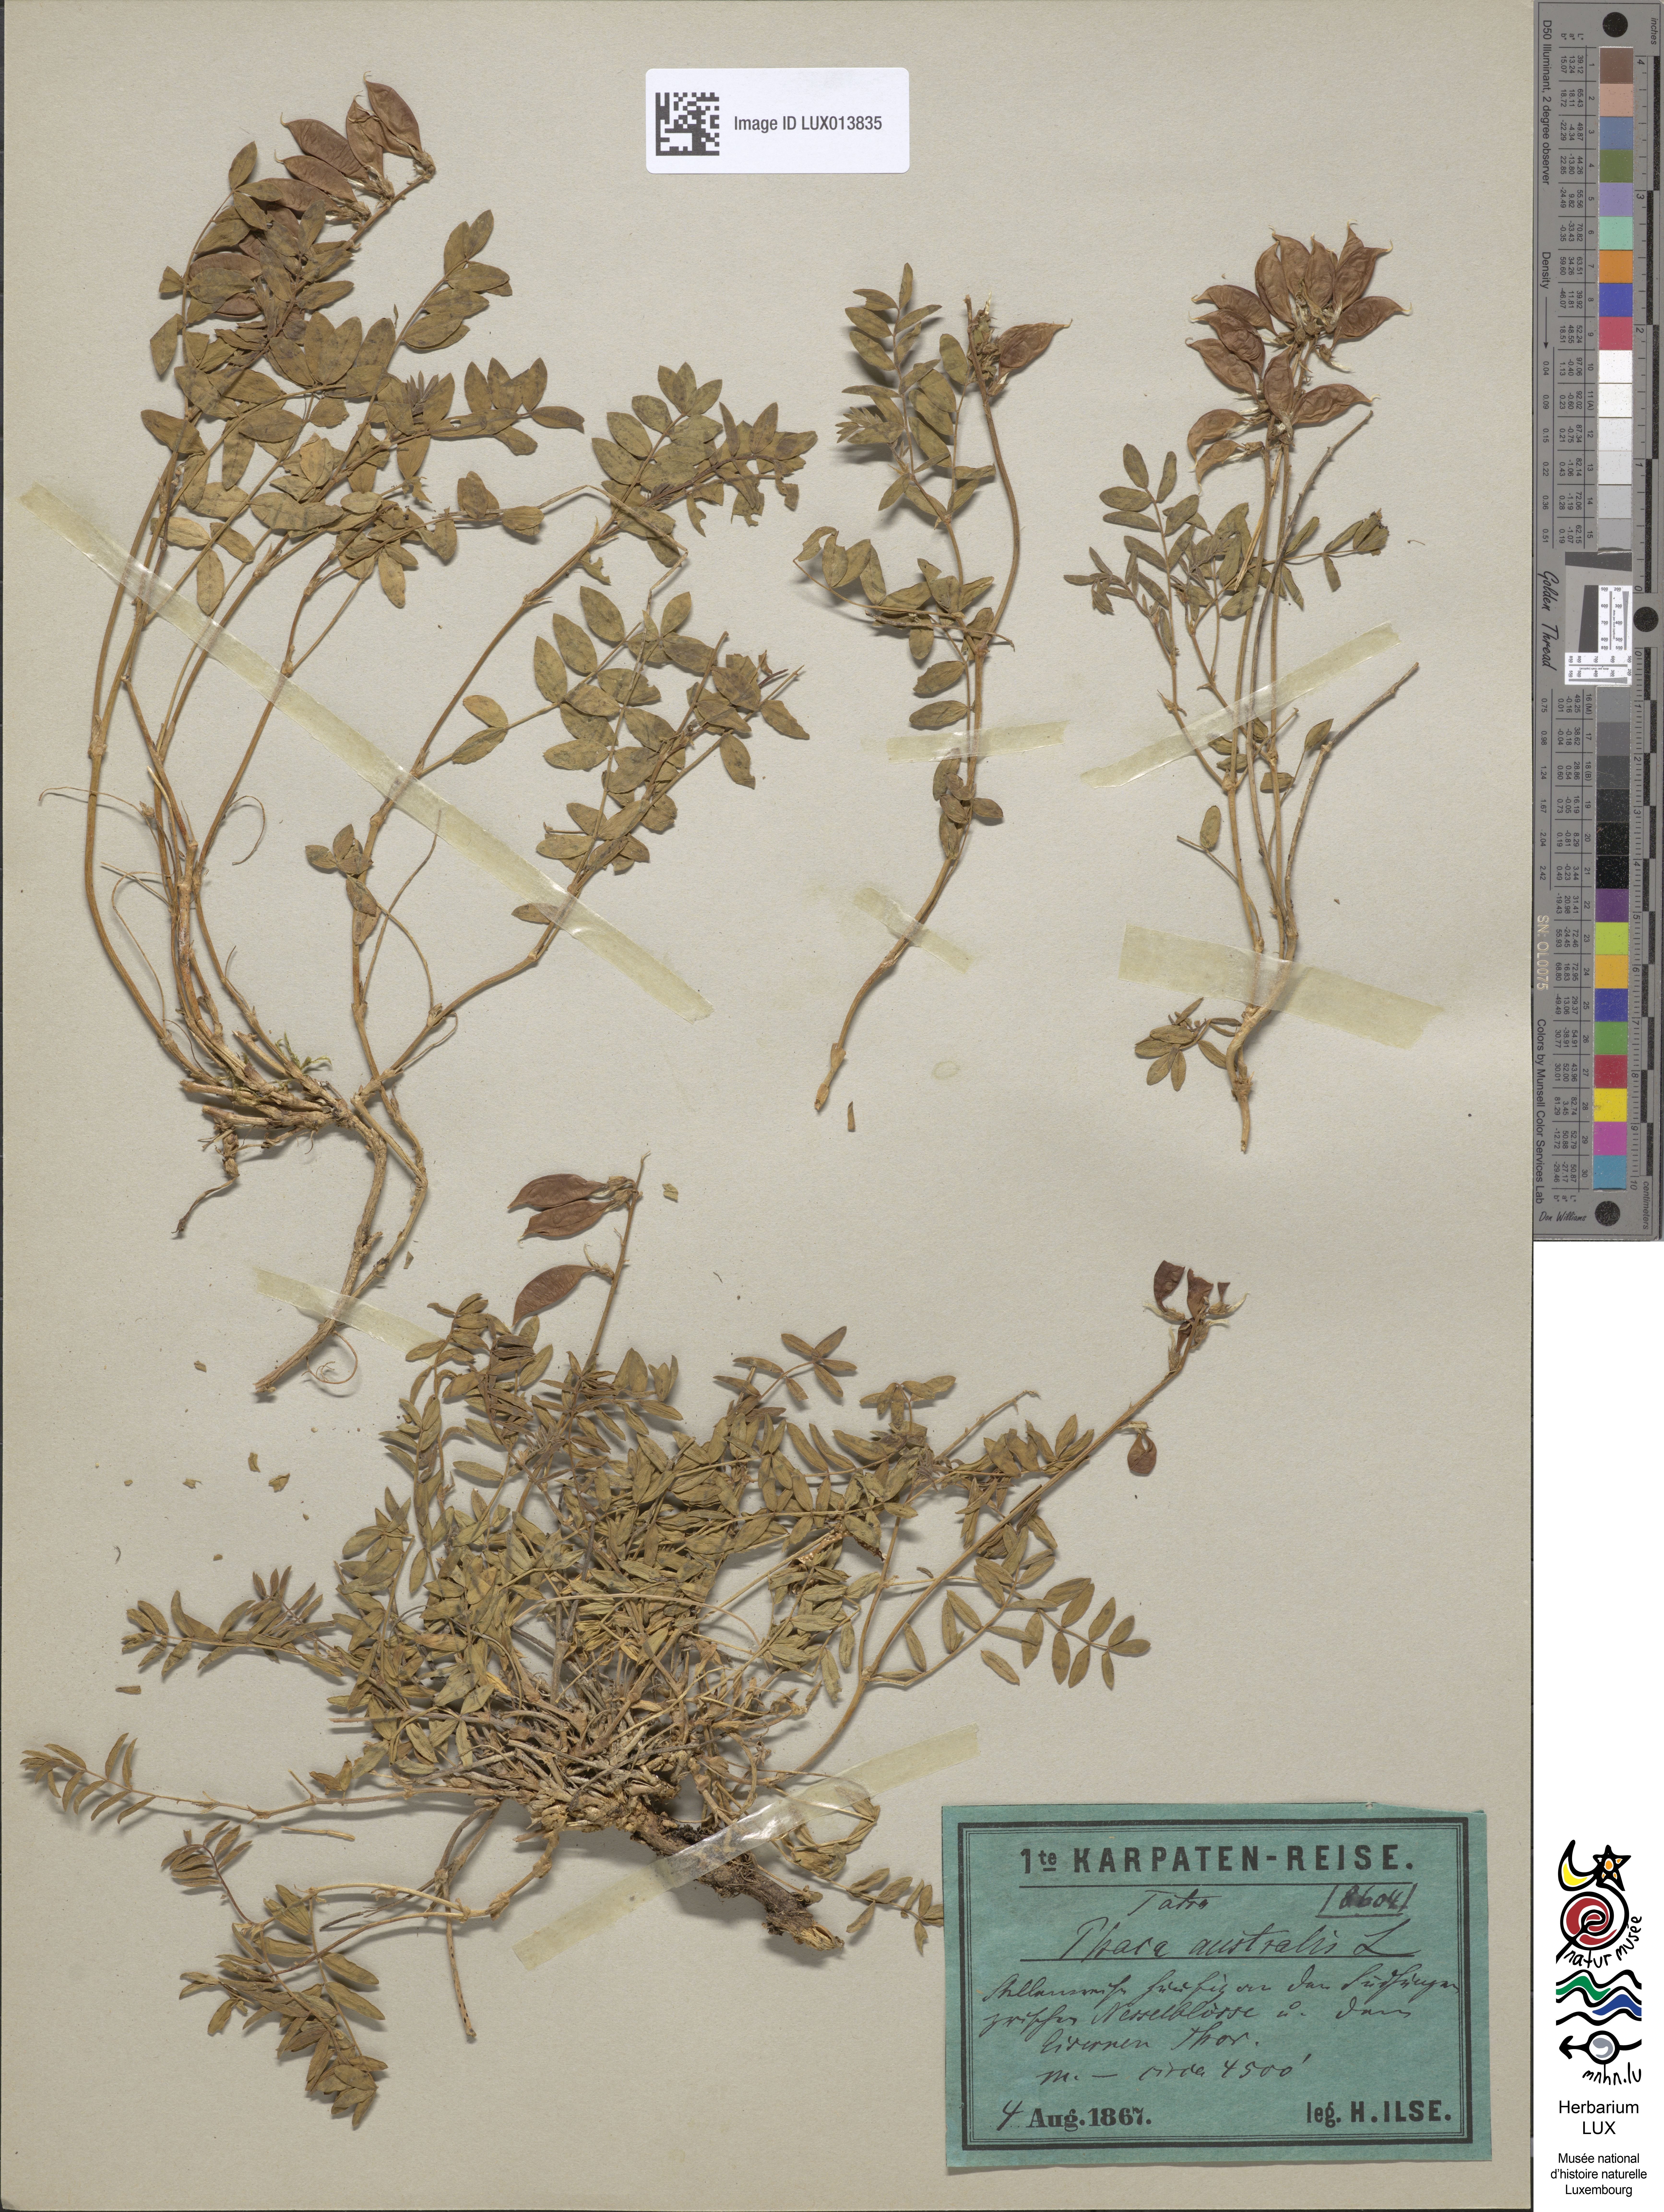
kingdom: Plantae
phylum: Tracheophyta
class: Magnoliopsida
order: Fabales
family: Fabaceae
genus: Astragalus
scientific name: Astragalus australis
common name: Indian milk-vetch
